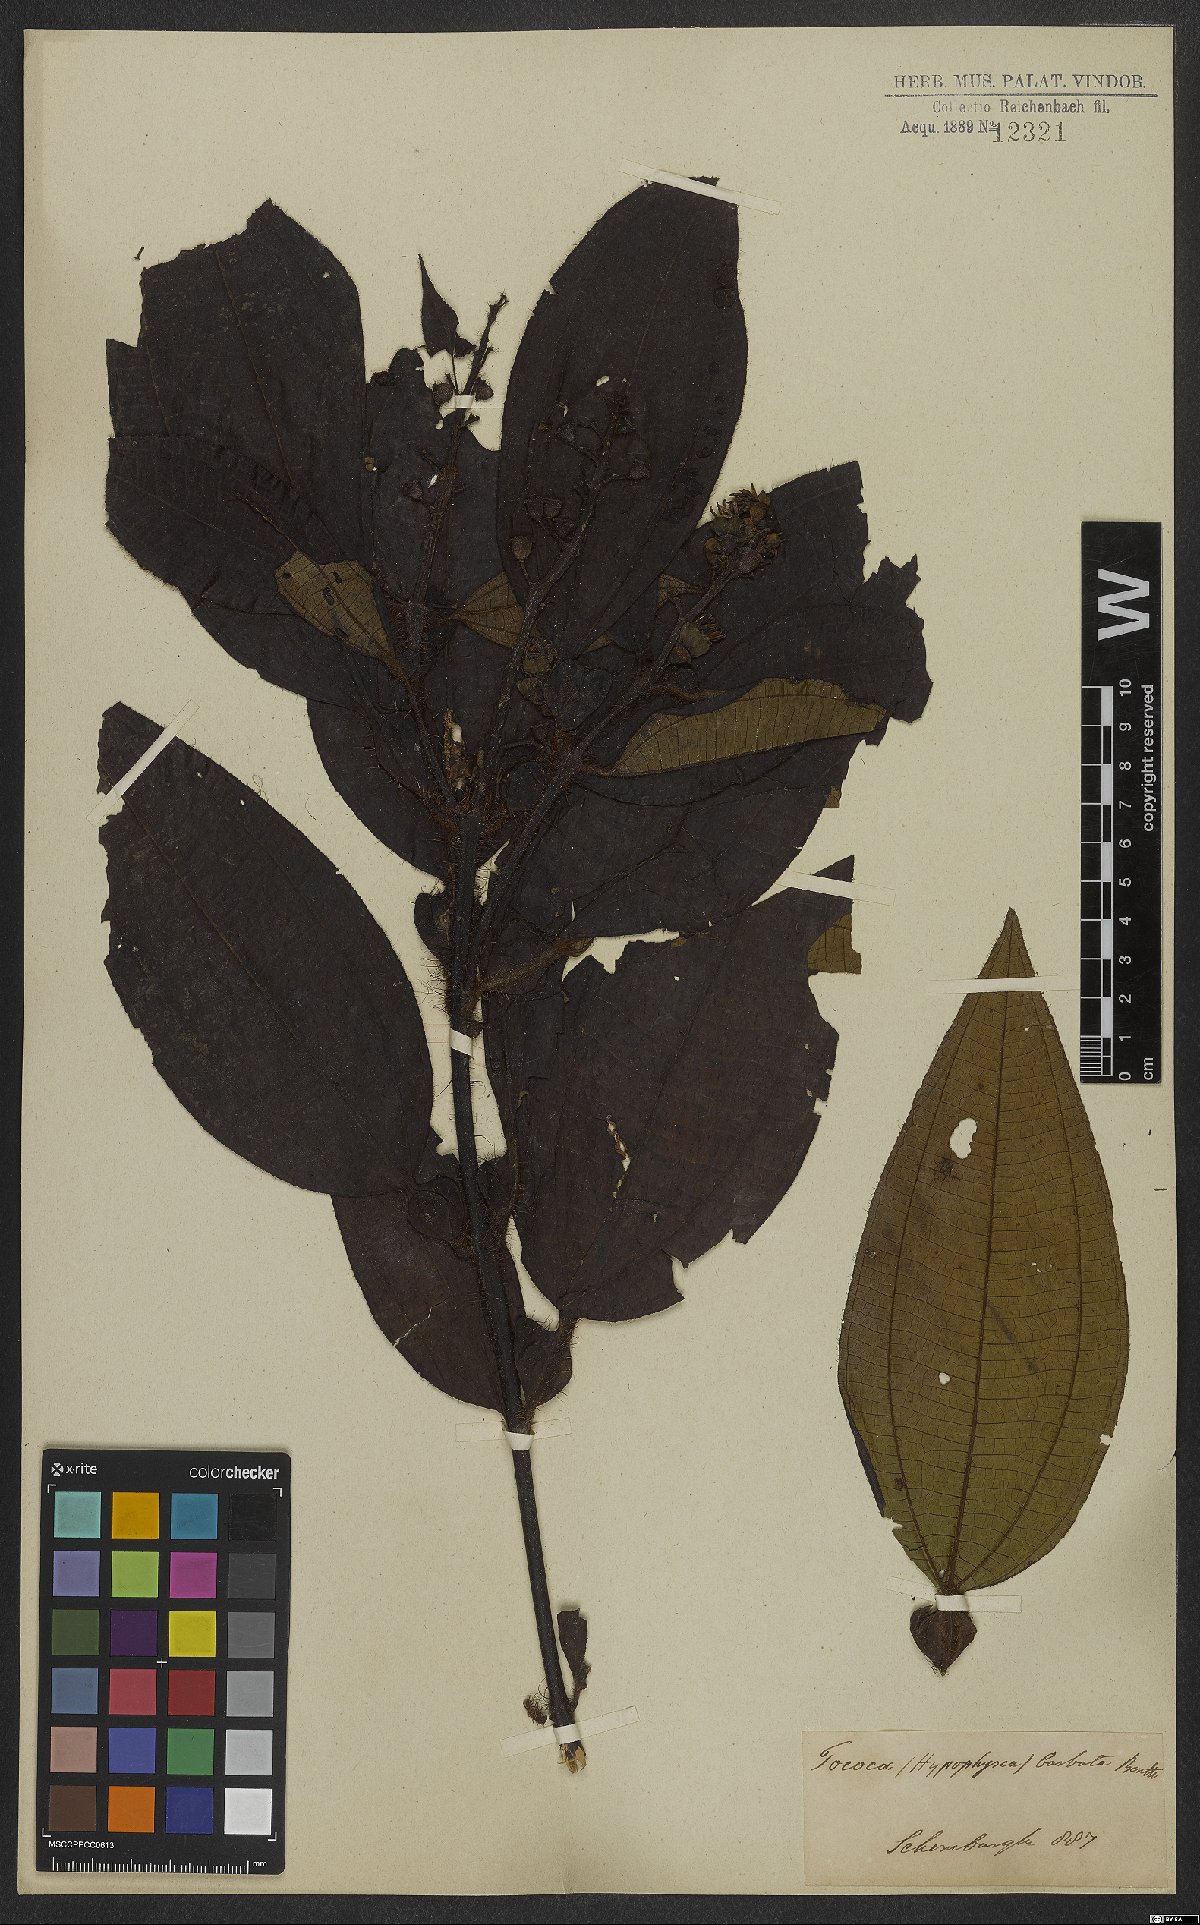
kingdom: Plantae
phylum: Tracheophyta
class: Magnoliopsida
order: Myrtales
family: Melastomataceae
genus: Miconia
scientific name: Miconia tococa
